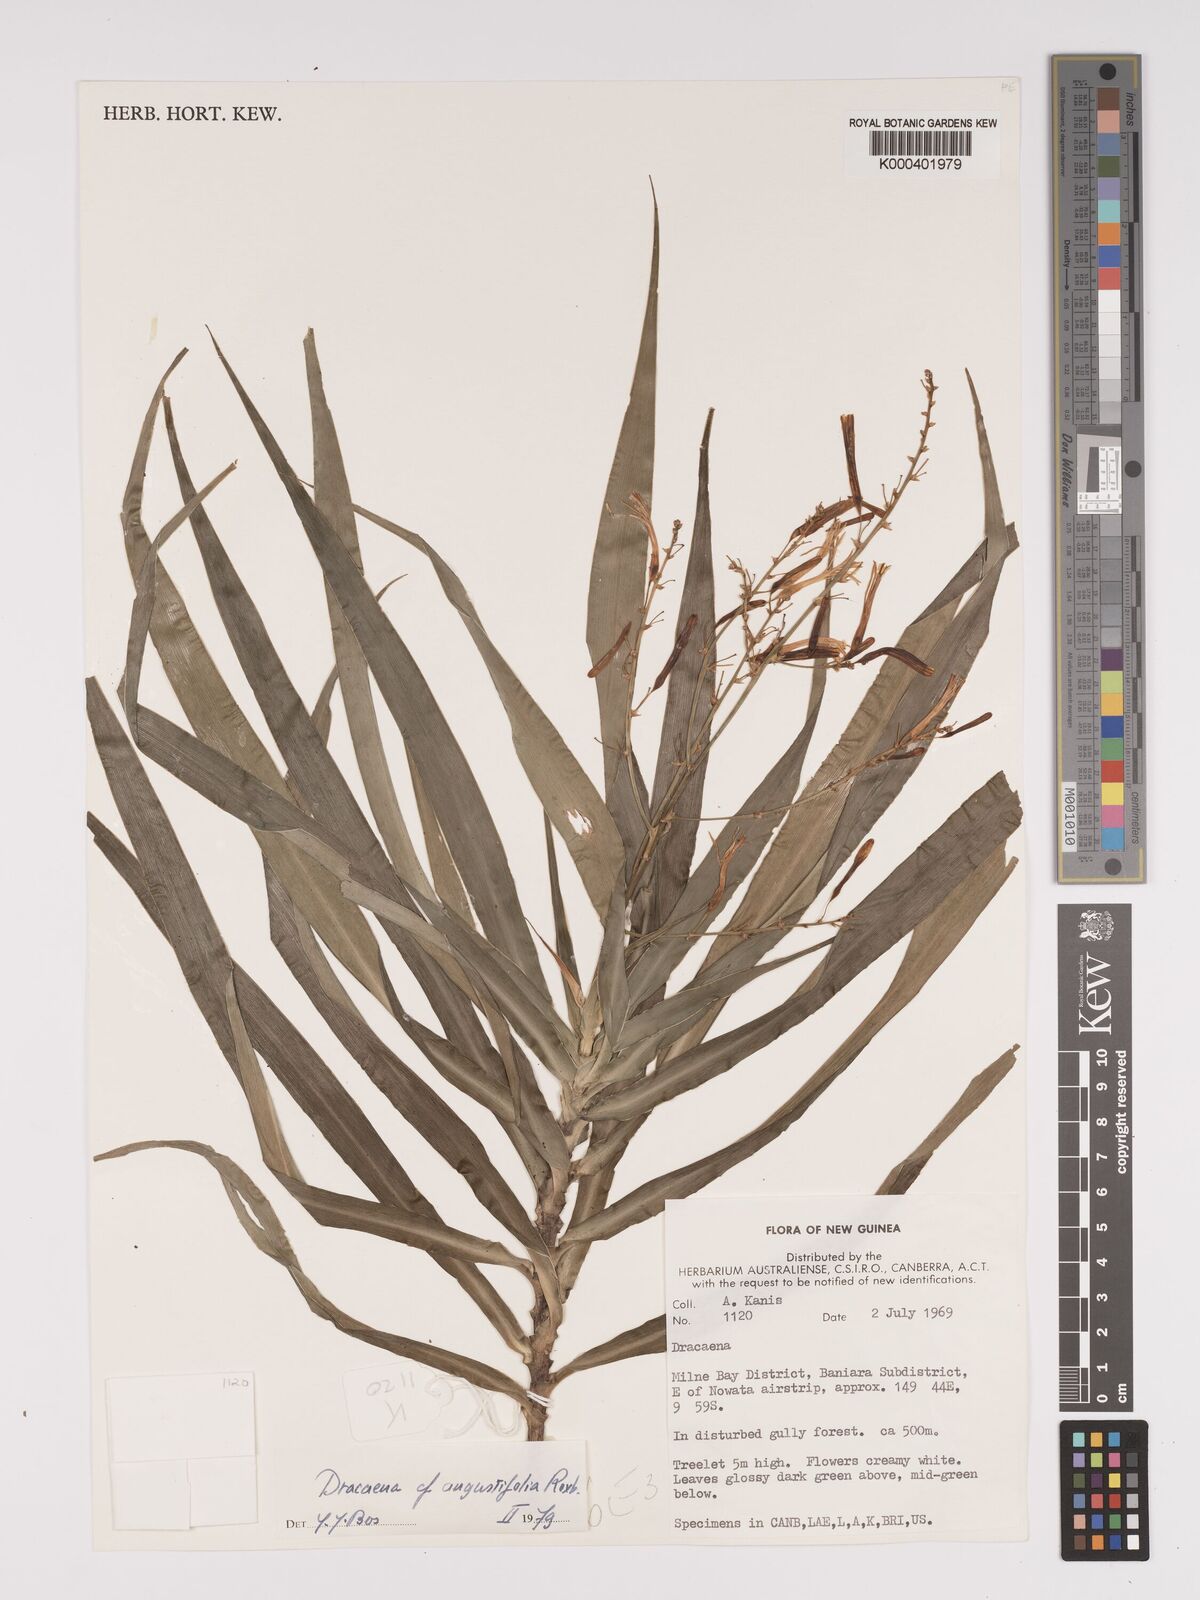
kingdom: Plantae
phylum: Tracheophyta
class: Liliopsida
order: Asparagales
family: Asparagaceae
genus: Dracaena
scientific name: Dracaena angustifolia
